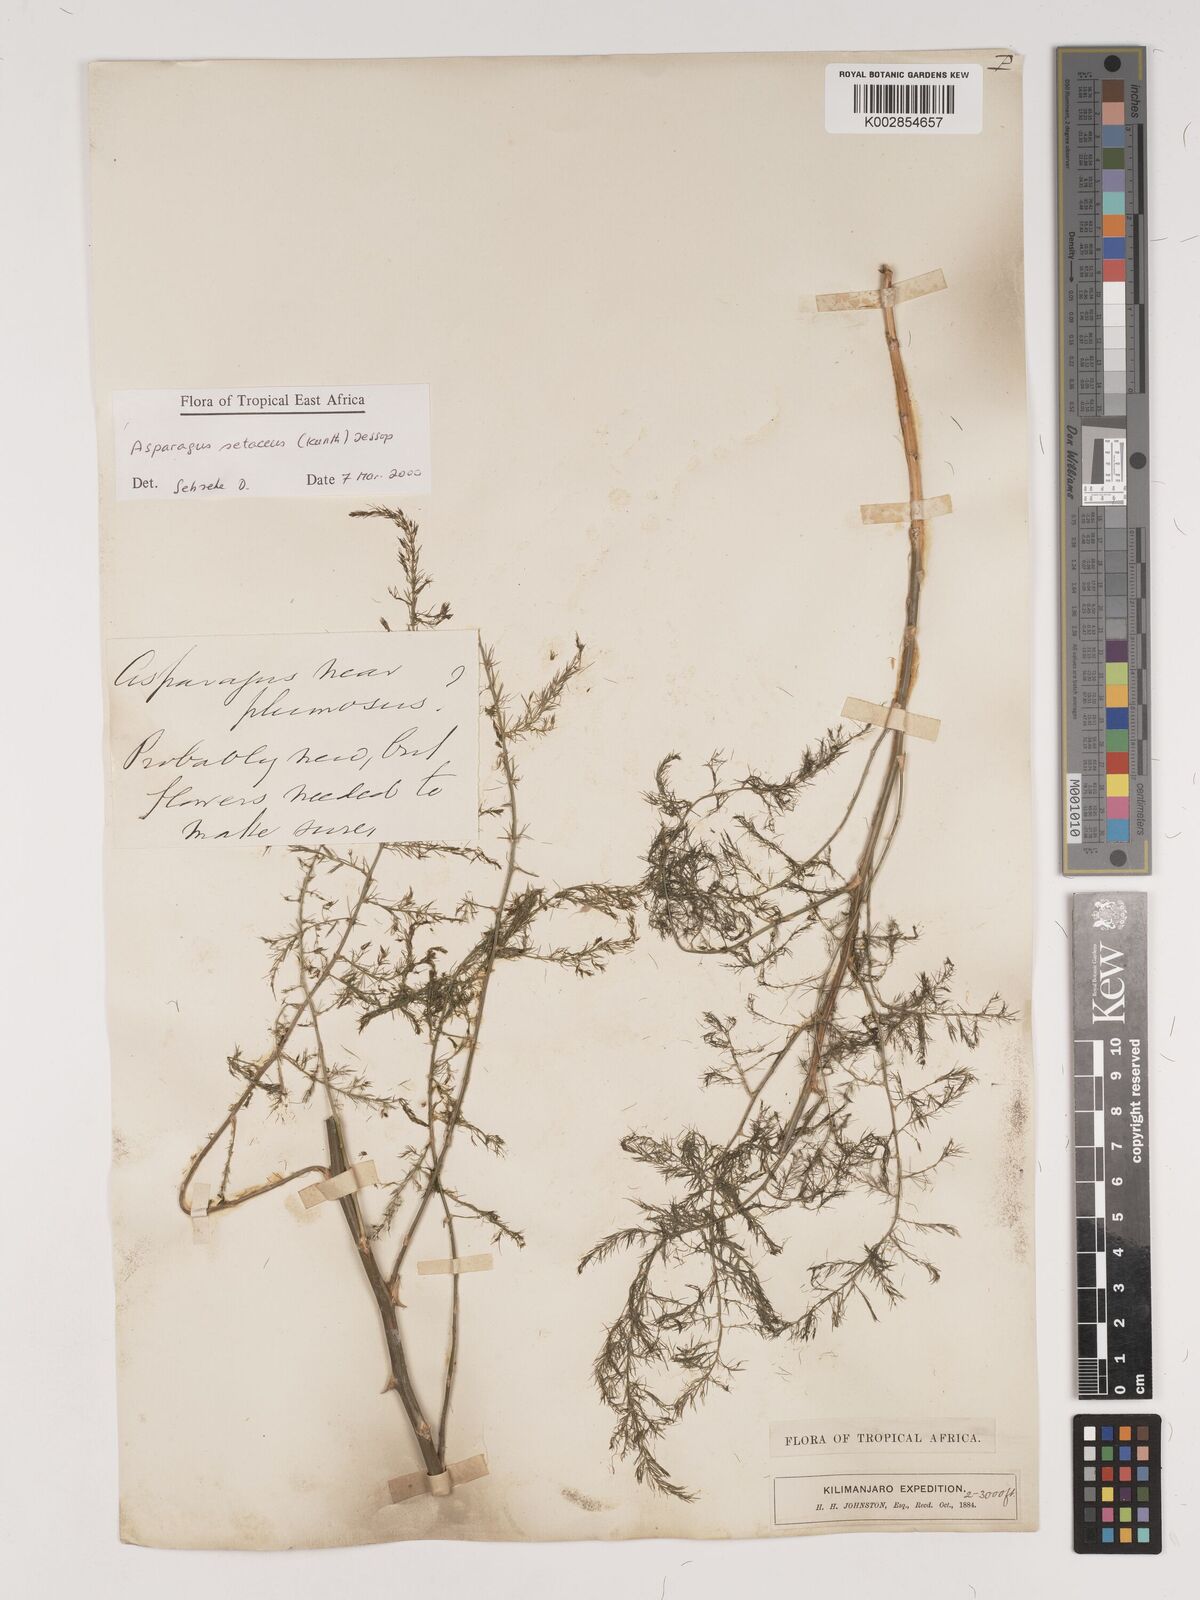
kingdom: Plantae
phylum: Tracheophyta
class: Liliopsida
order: Asparagales
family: Asparagaceae
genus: Asparagus
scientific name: Asparagus setaceus
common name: Common asparagus fern
